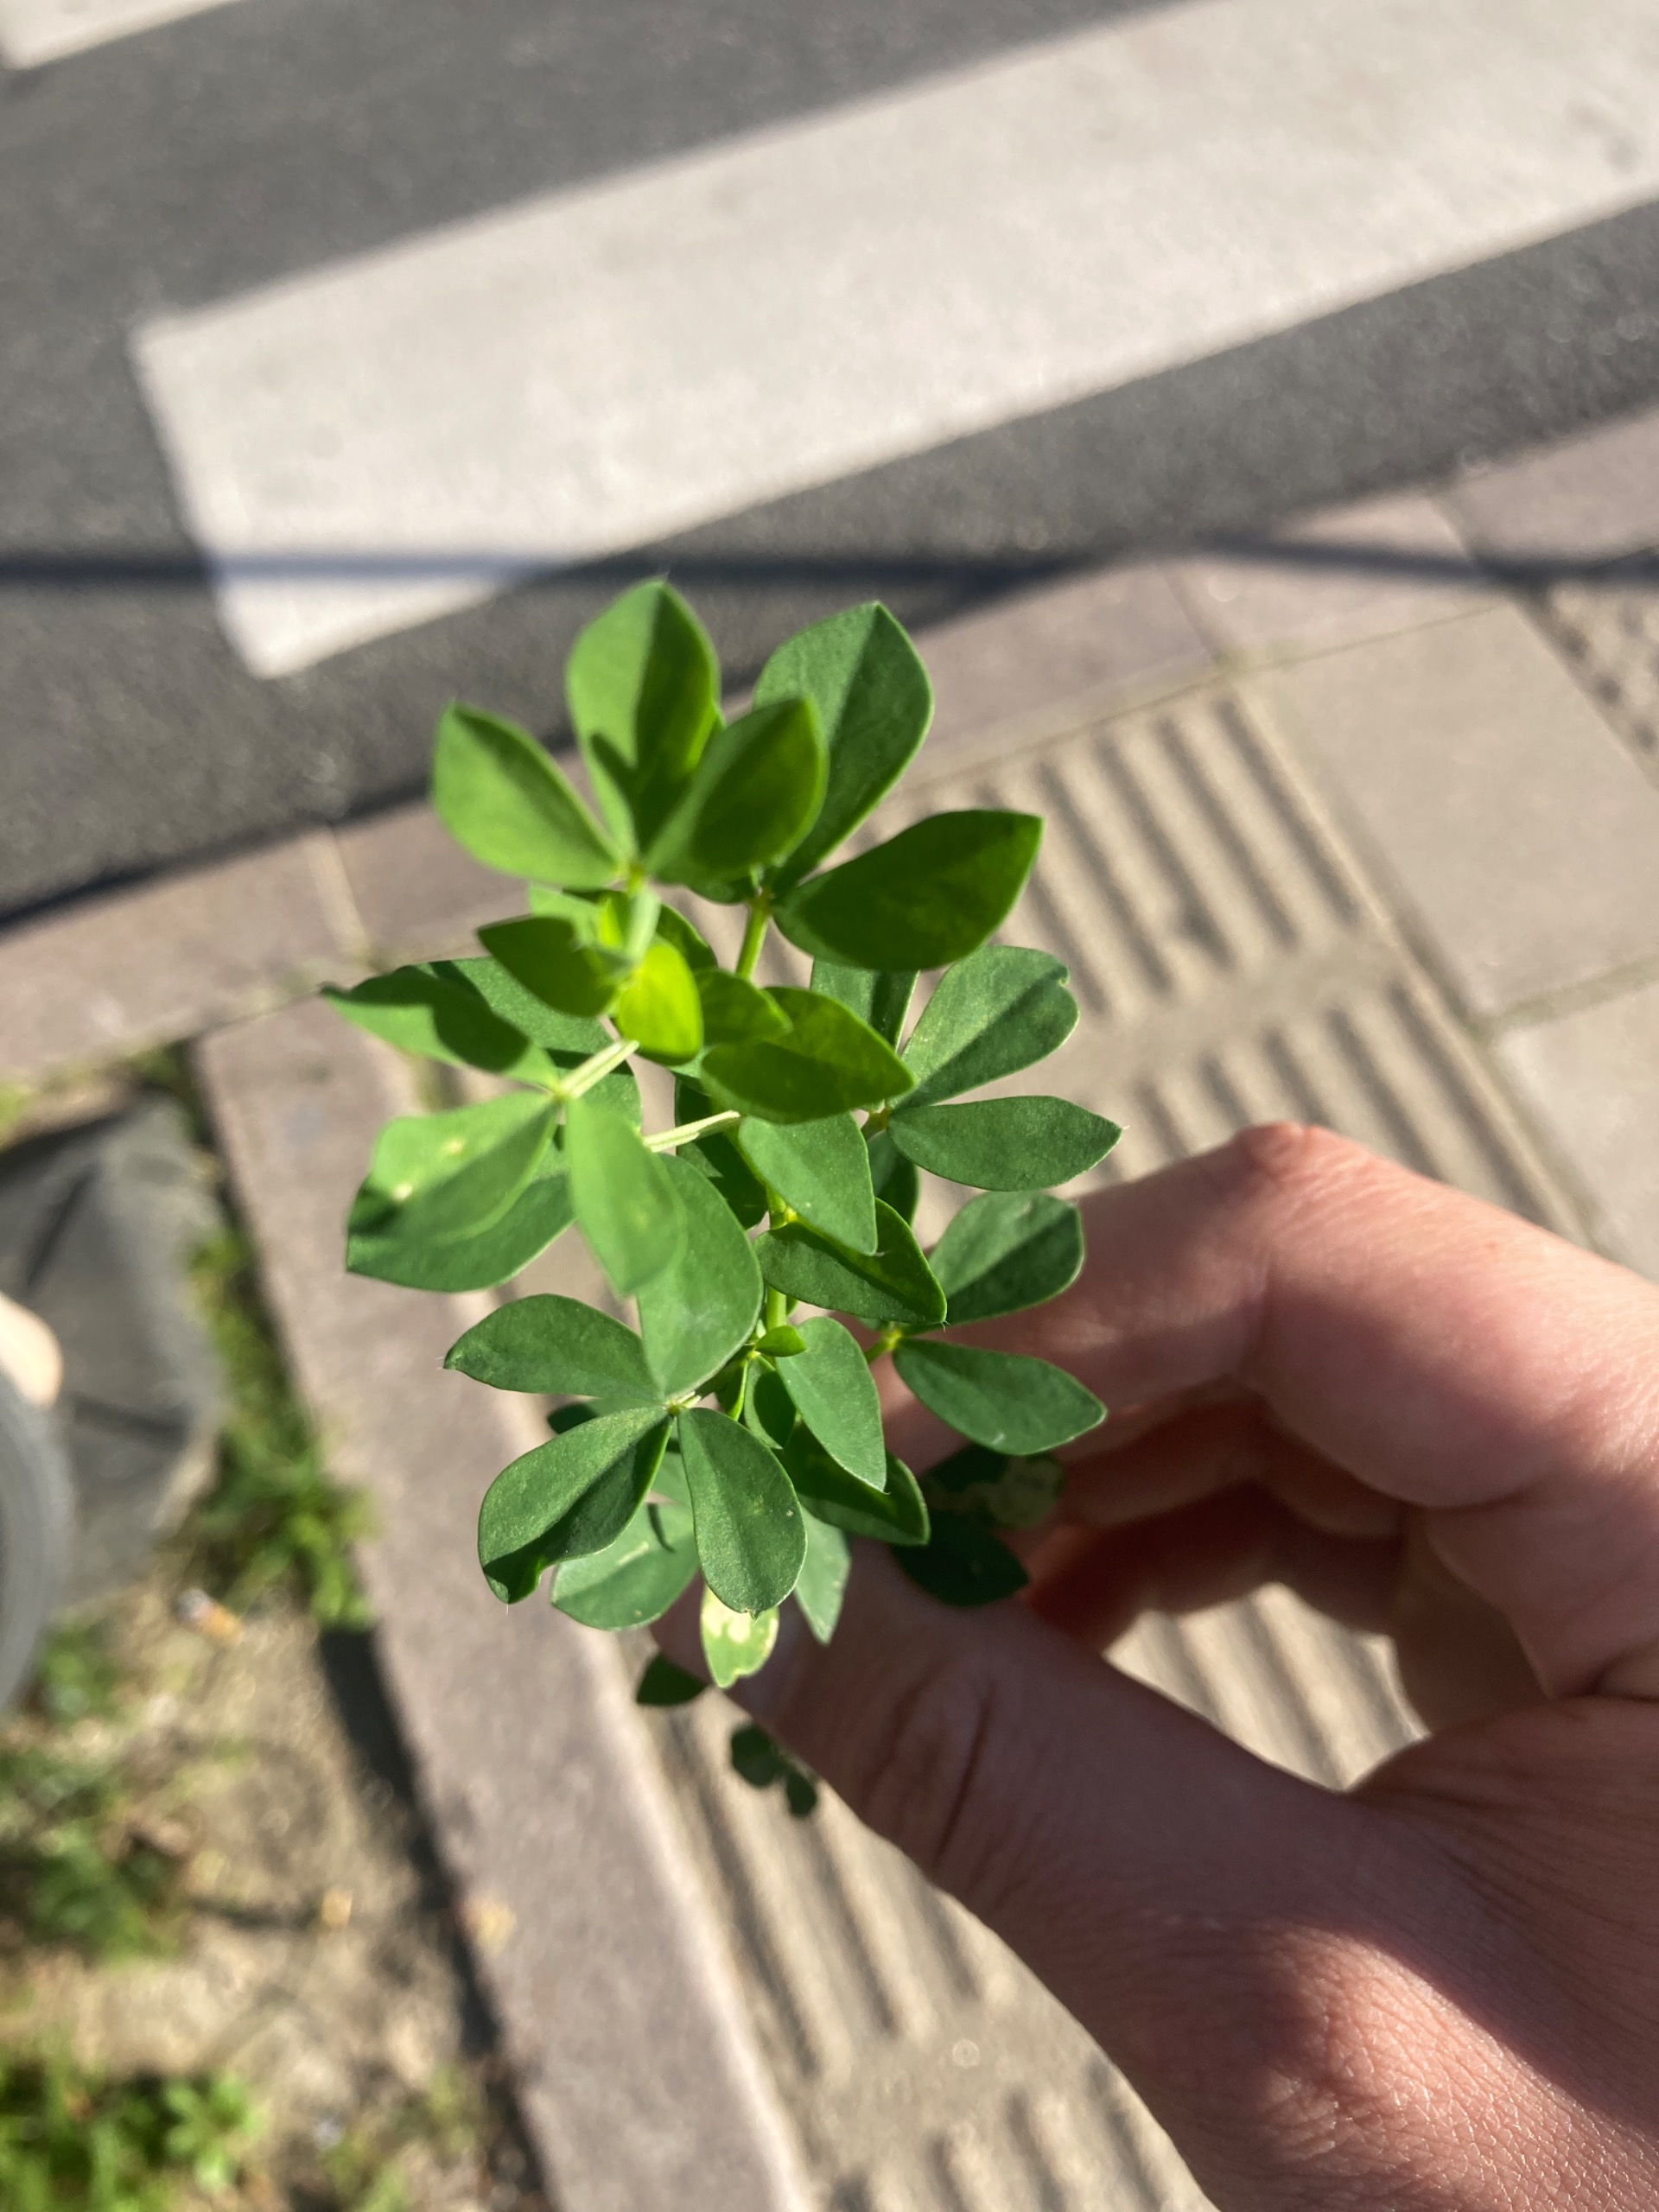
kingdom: Plantae
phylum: Tracheophyta
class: Magnoliopsida
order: Fabales
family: Fabaceae
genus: Lotus
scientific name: Lotus corniculatus
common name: Almindelig kællingetand
